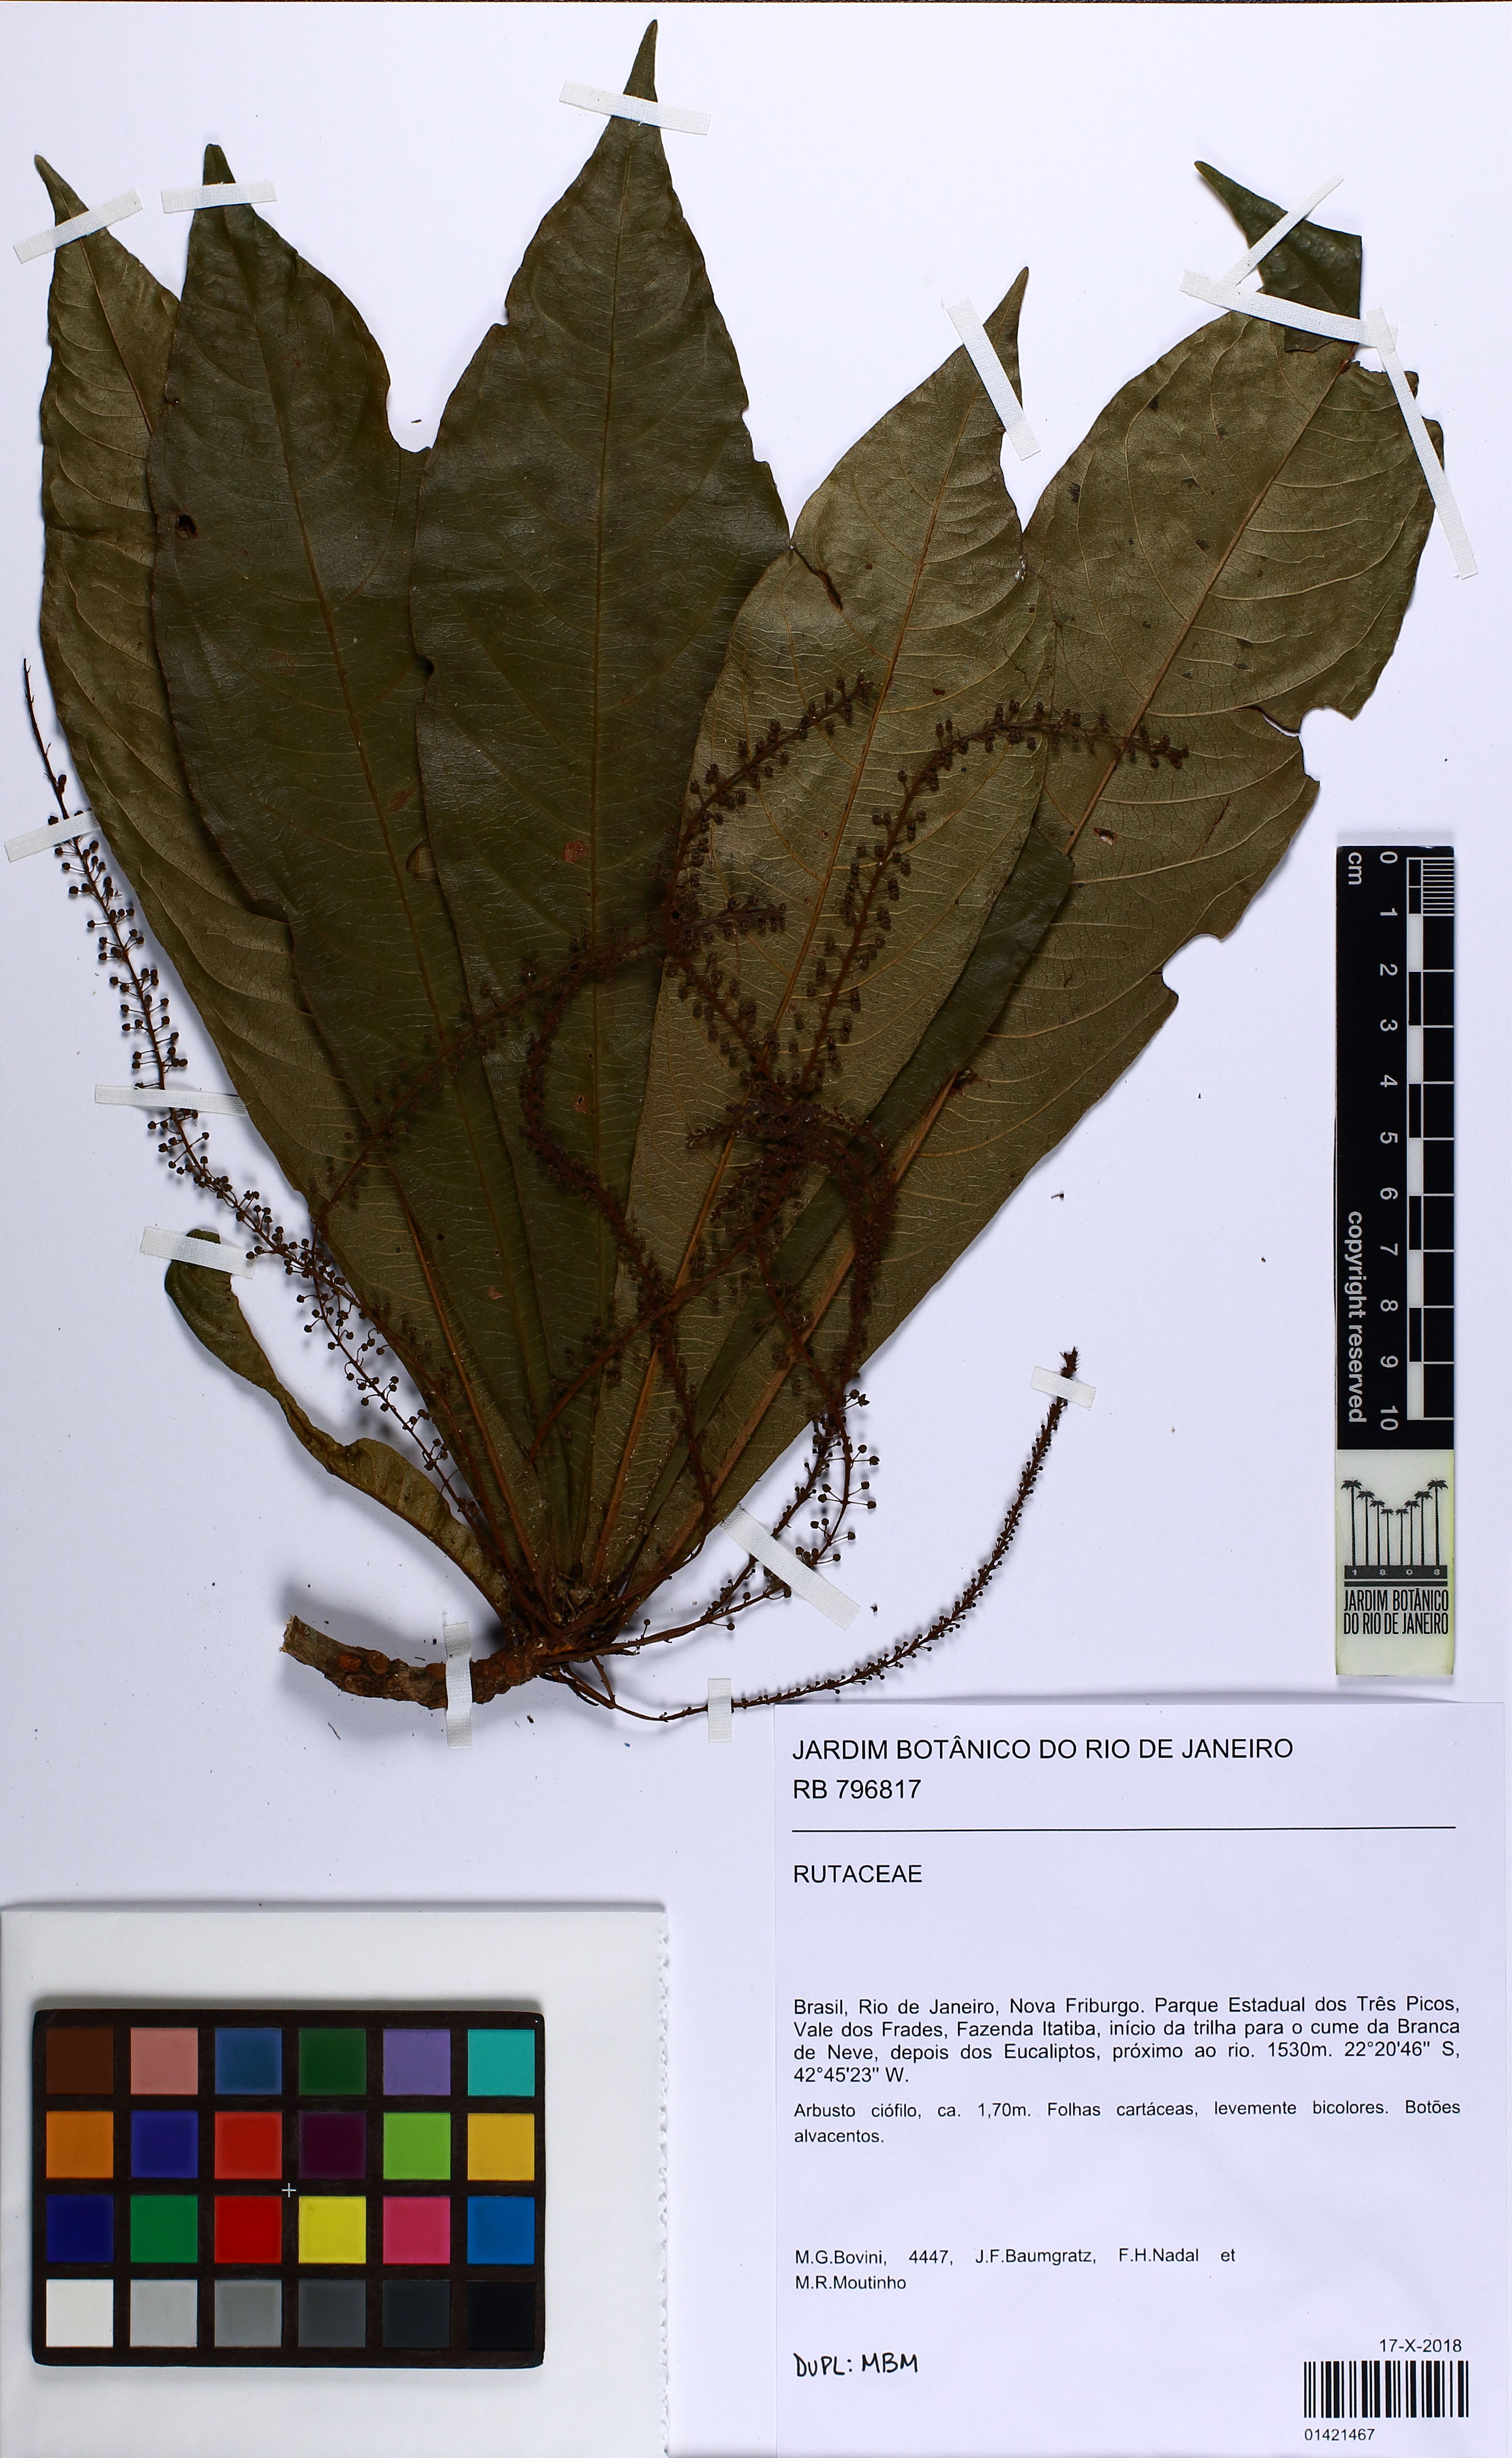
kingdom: Plantae
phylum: Tracheophyta
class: Magnoliopsida
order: Ericales
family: Primulaceae
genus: Clavija
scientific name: Clavija
